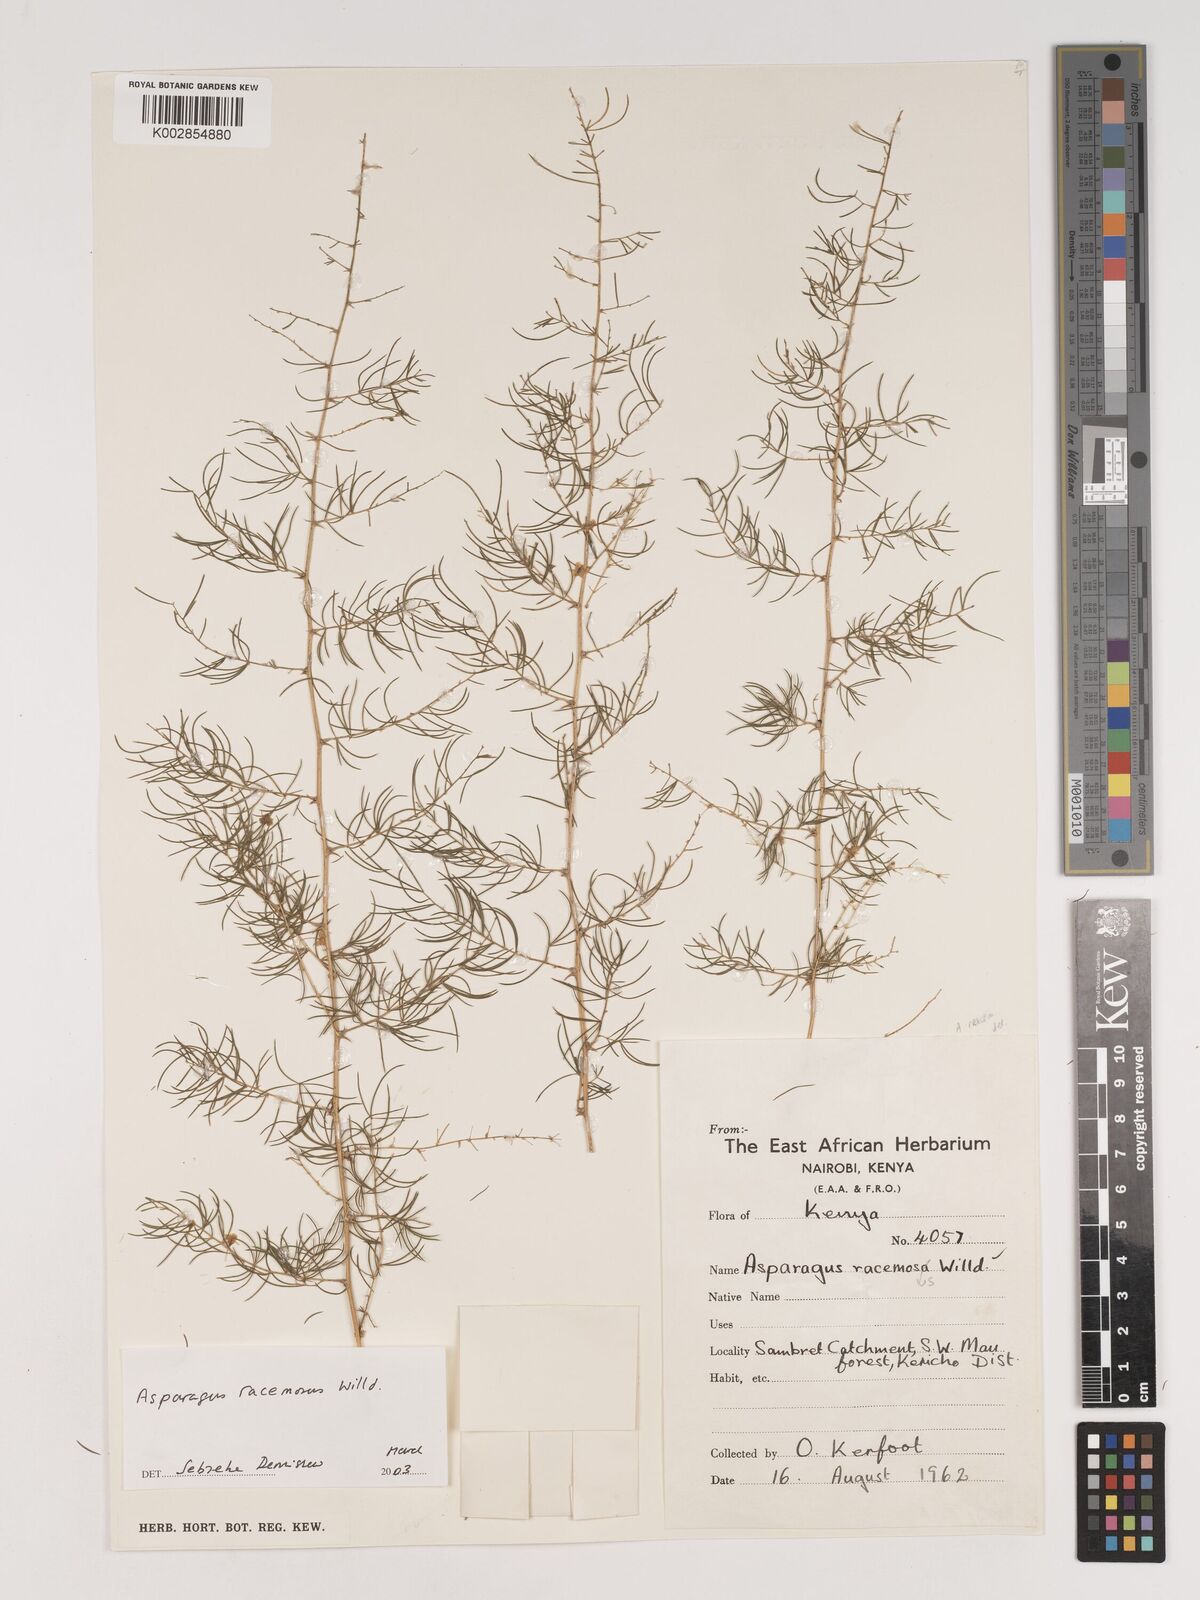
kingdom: Plantae
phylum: Tracheophyta
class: Liliopsida
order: Asparagales
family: Asparagaceae
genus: Asparagus
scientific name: Asparagus racemosus
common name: Asparagus-fern
